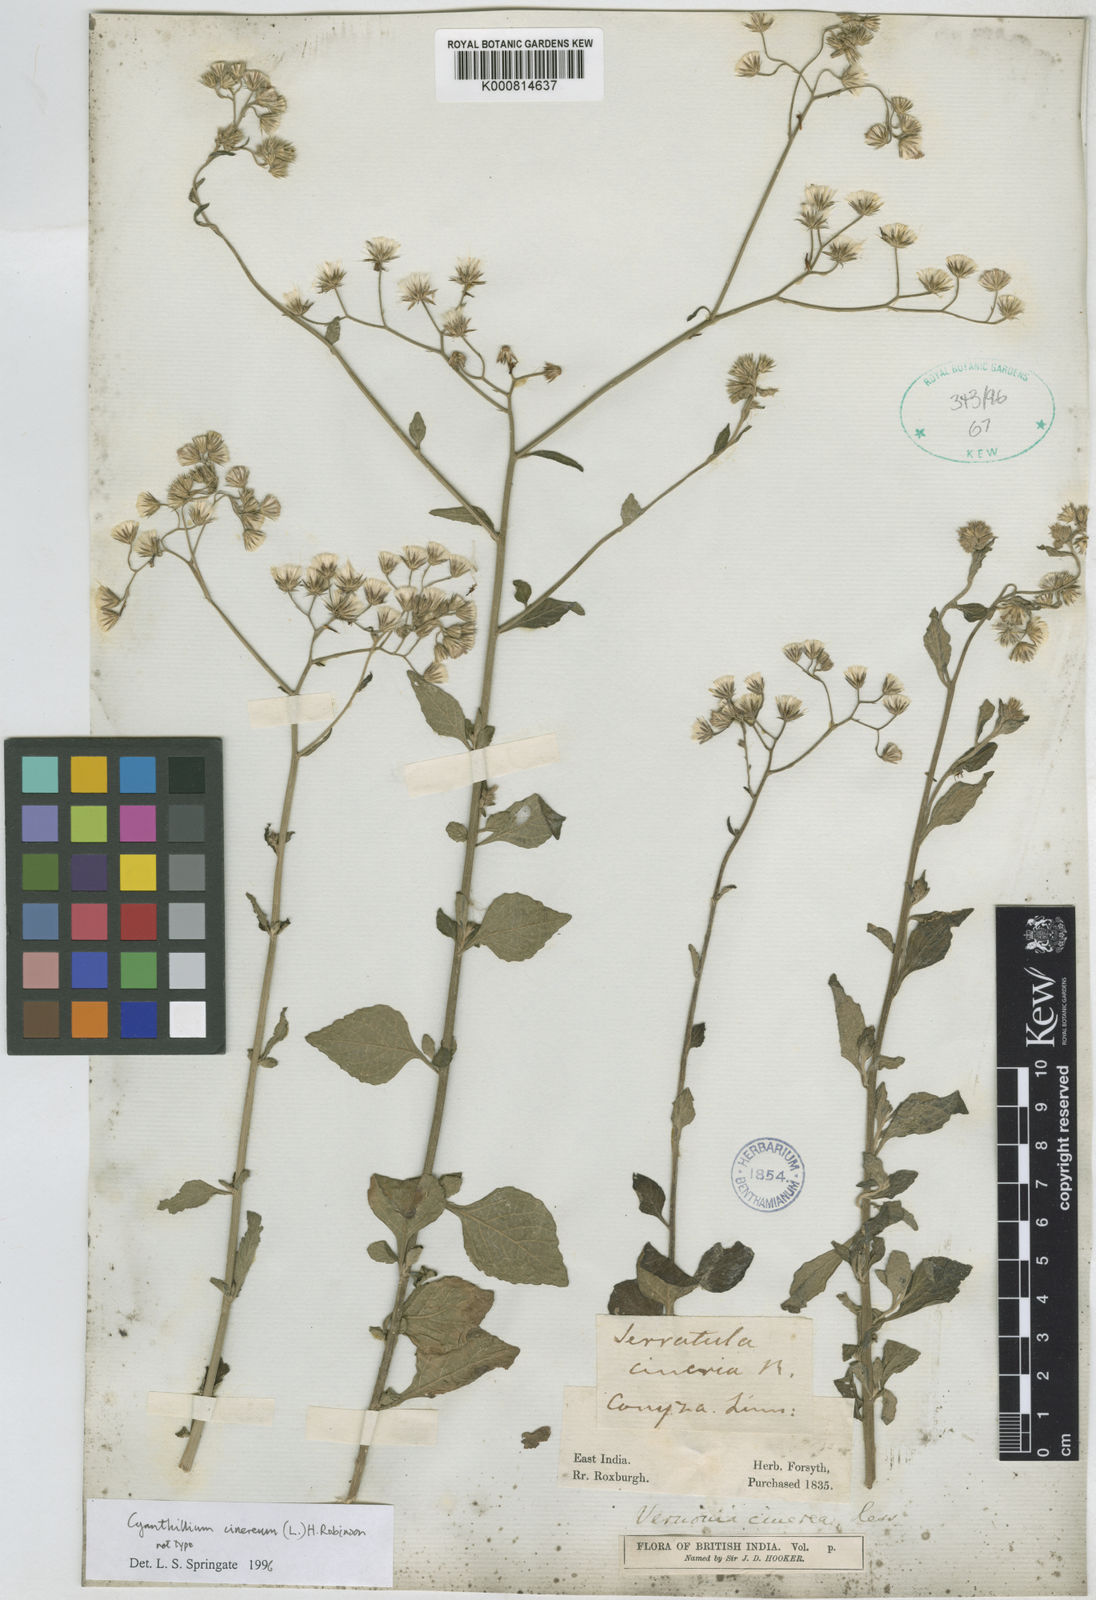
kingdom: Plantae
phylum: Tracheophyta
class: Magnoliopsida
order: Asterales
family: Asteraceae
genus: Cyanthillium
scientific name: Cyanthillium cinereum
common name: Little ironweed
